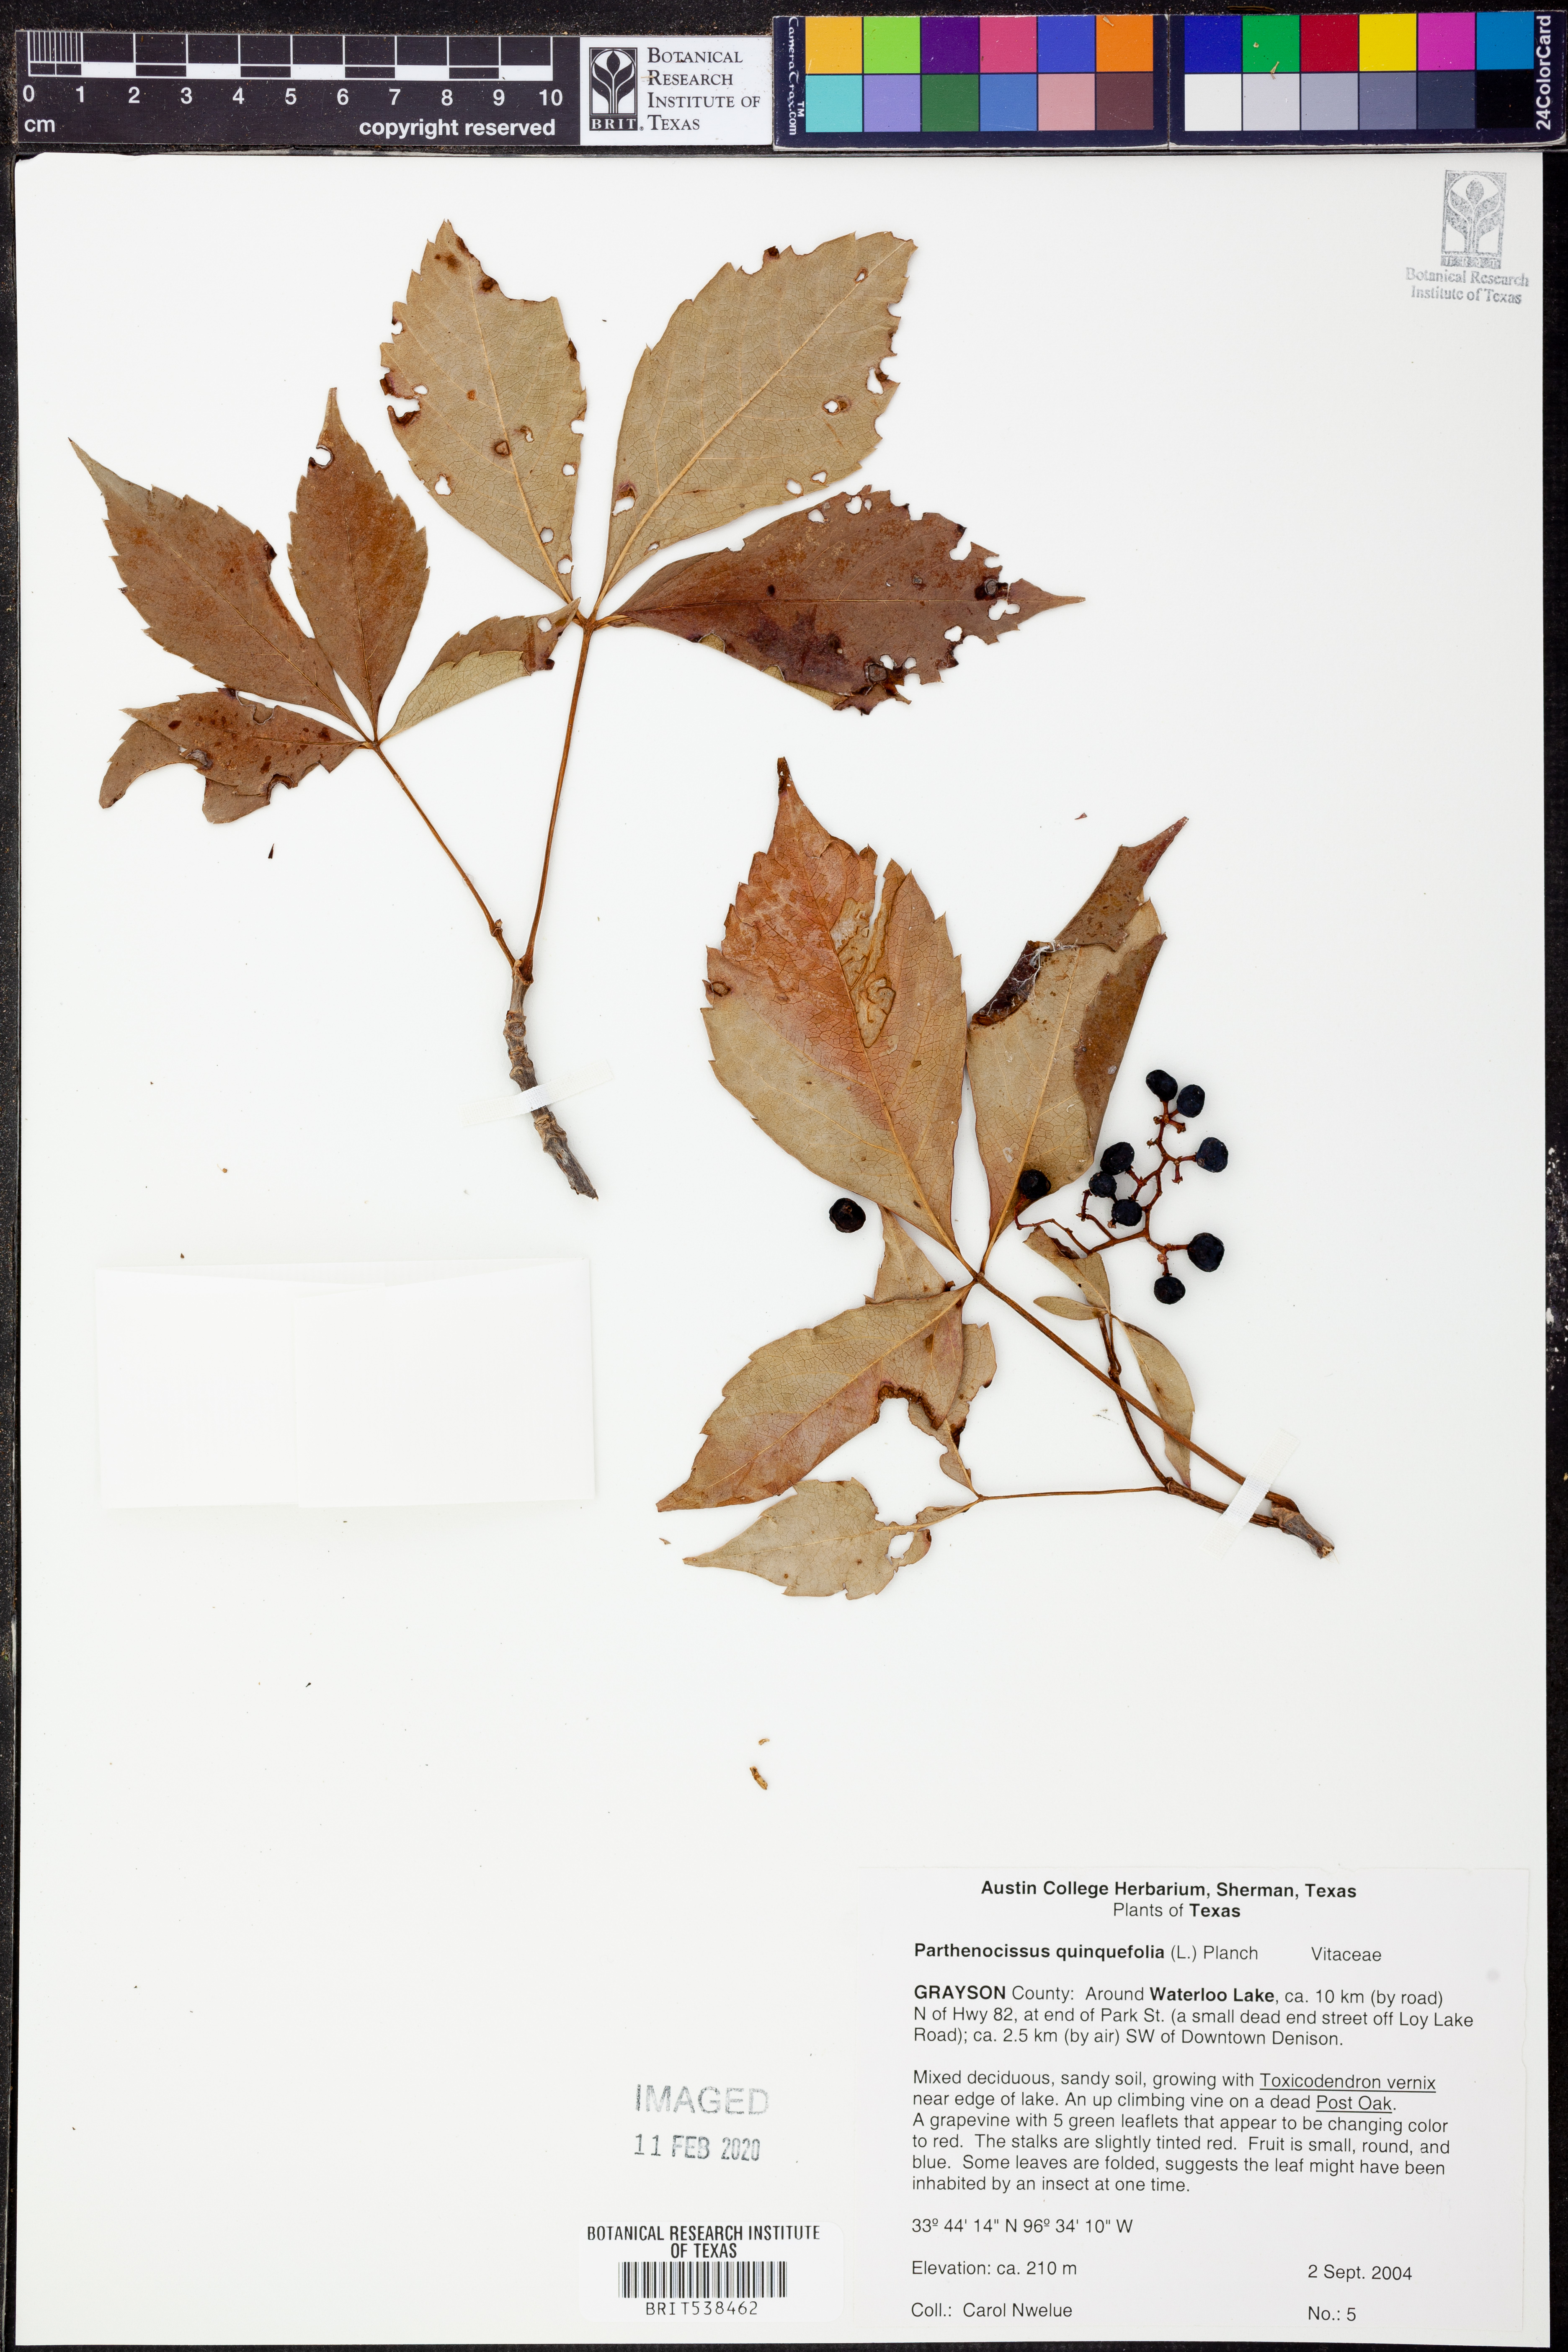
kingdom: Plantae
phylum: Tracheophyta
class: Magnoliopsida
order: Vitales
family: Vitaceae
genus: Parthenocissus
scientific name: Parthenocissus quinquefolia
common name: Virginia-creeper
